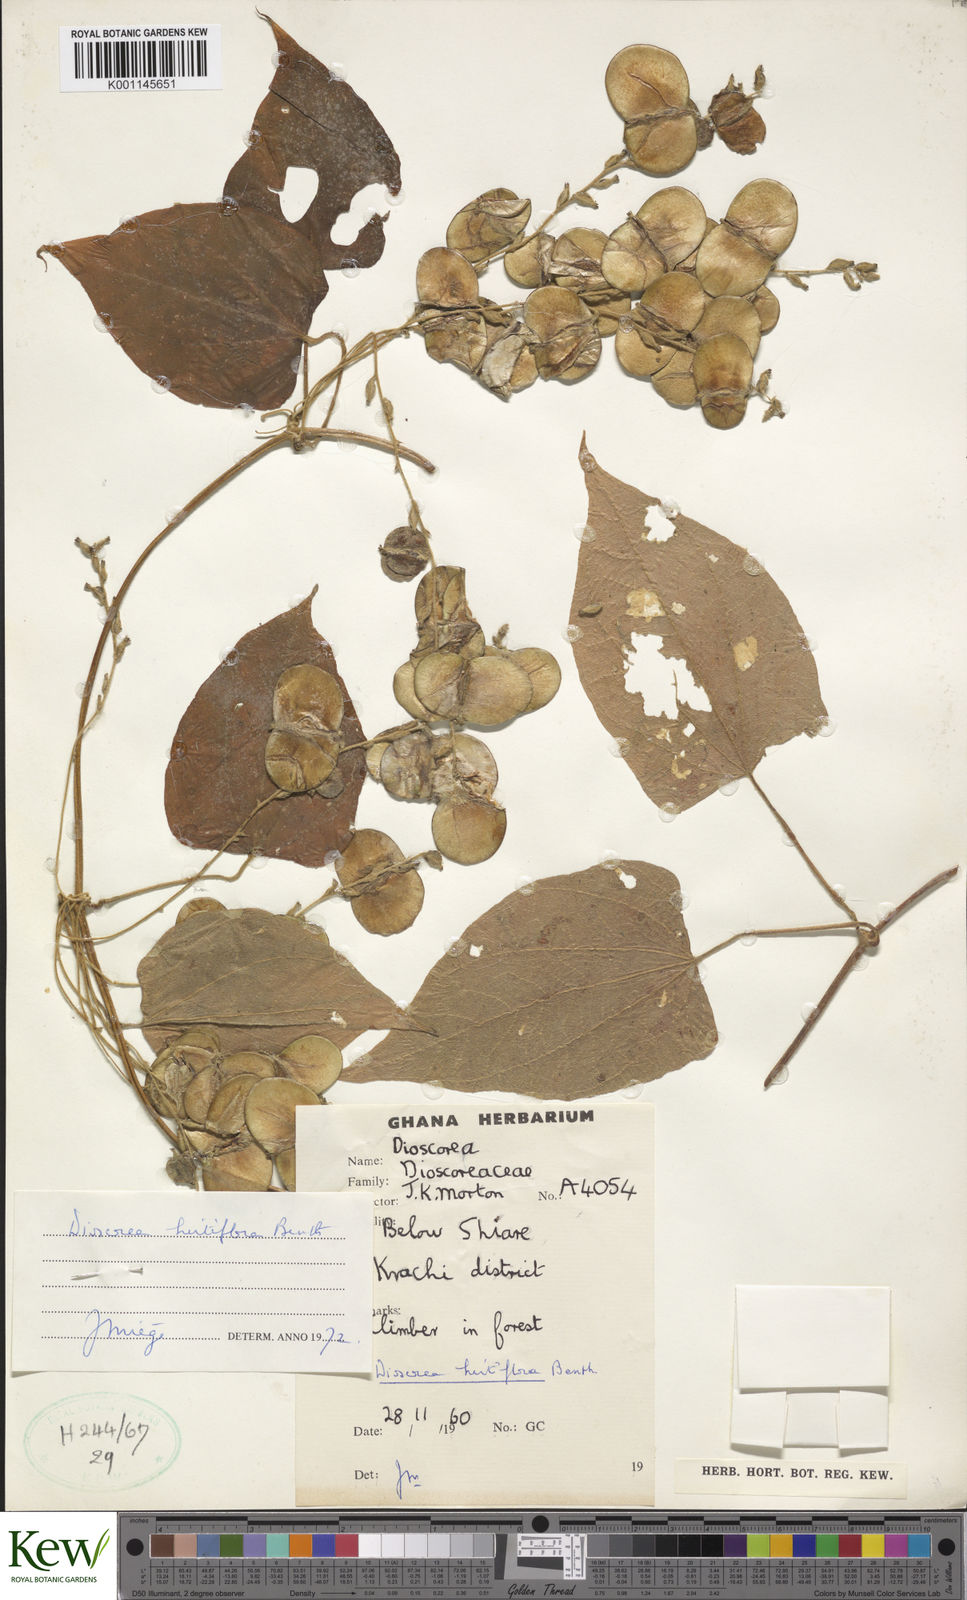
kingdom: Plantae
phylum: Tracheophyta
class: Liliopsida
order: Dioscoreales
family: Dioscoreaceae
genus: Dioscorea
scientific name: Dioscorea hirtiflora
